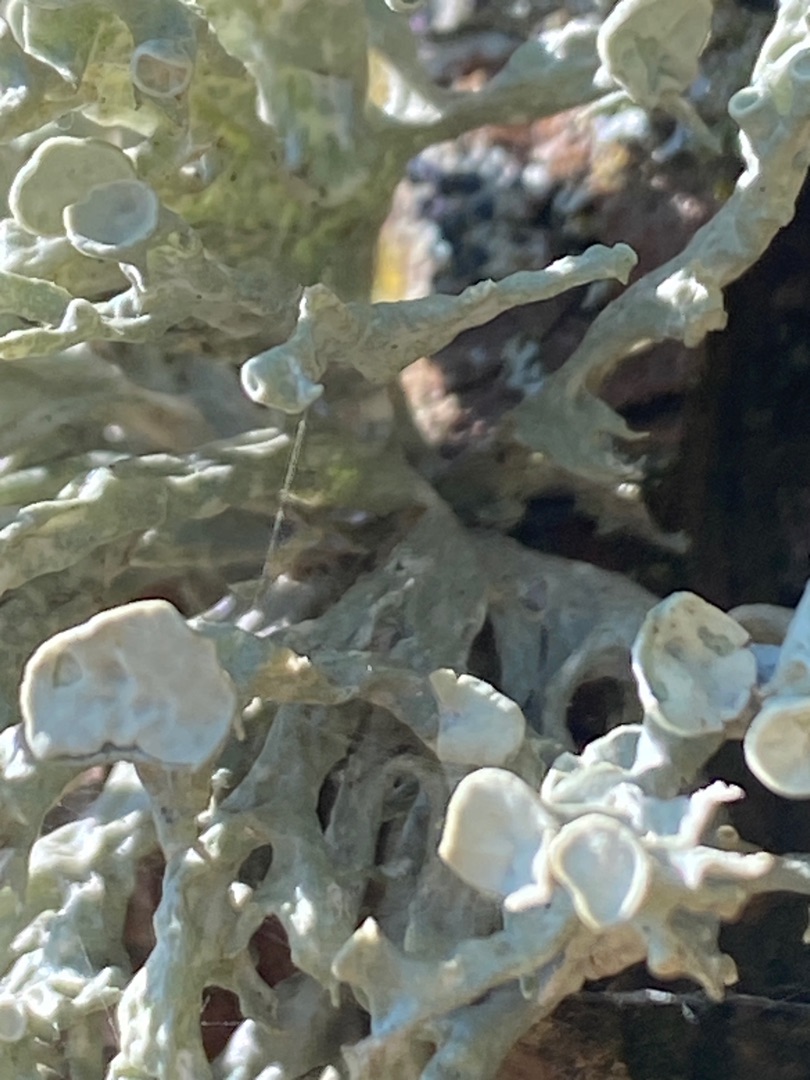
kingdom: Fungi
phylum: Ascomycota
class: Lecanoromycetes
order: Lecanorales
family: Ramalinaceae
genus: Ramalina
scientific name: Ramalina fastigiata
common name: Tue-grenlav
